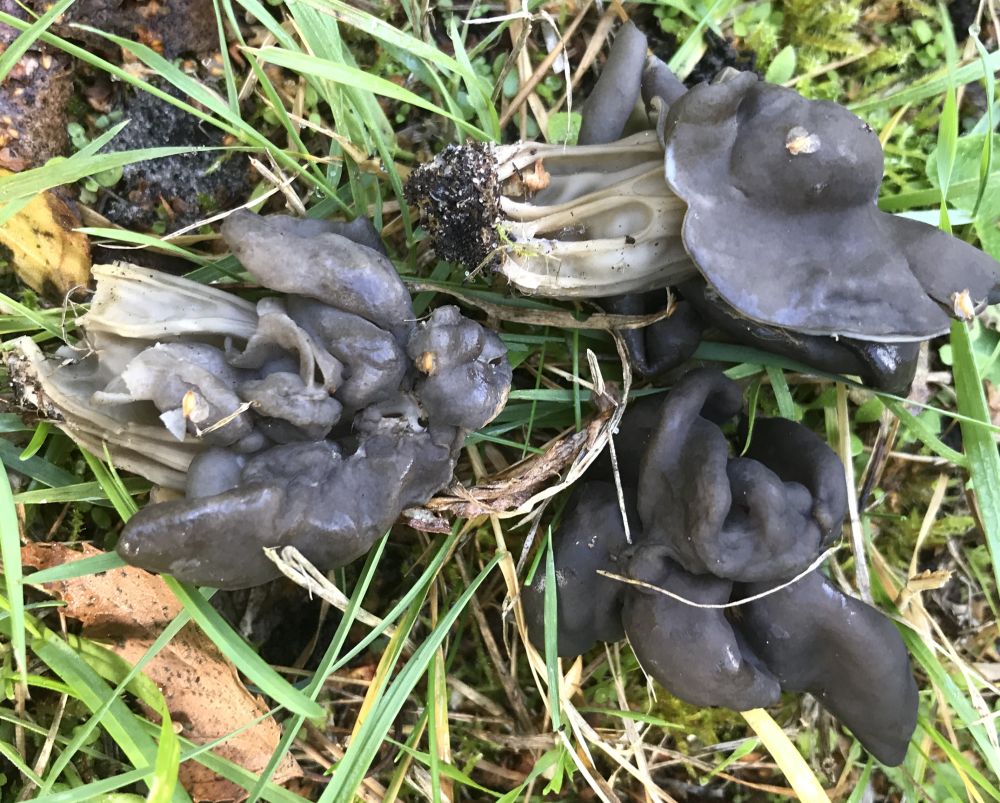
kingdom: Fungi
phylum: Ascomycota
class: Pezizomycetes
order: Pezizales
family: Helvellaceae
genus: Helvella
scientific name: Helvella lacunosa
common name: grubet foldhat
